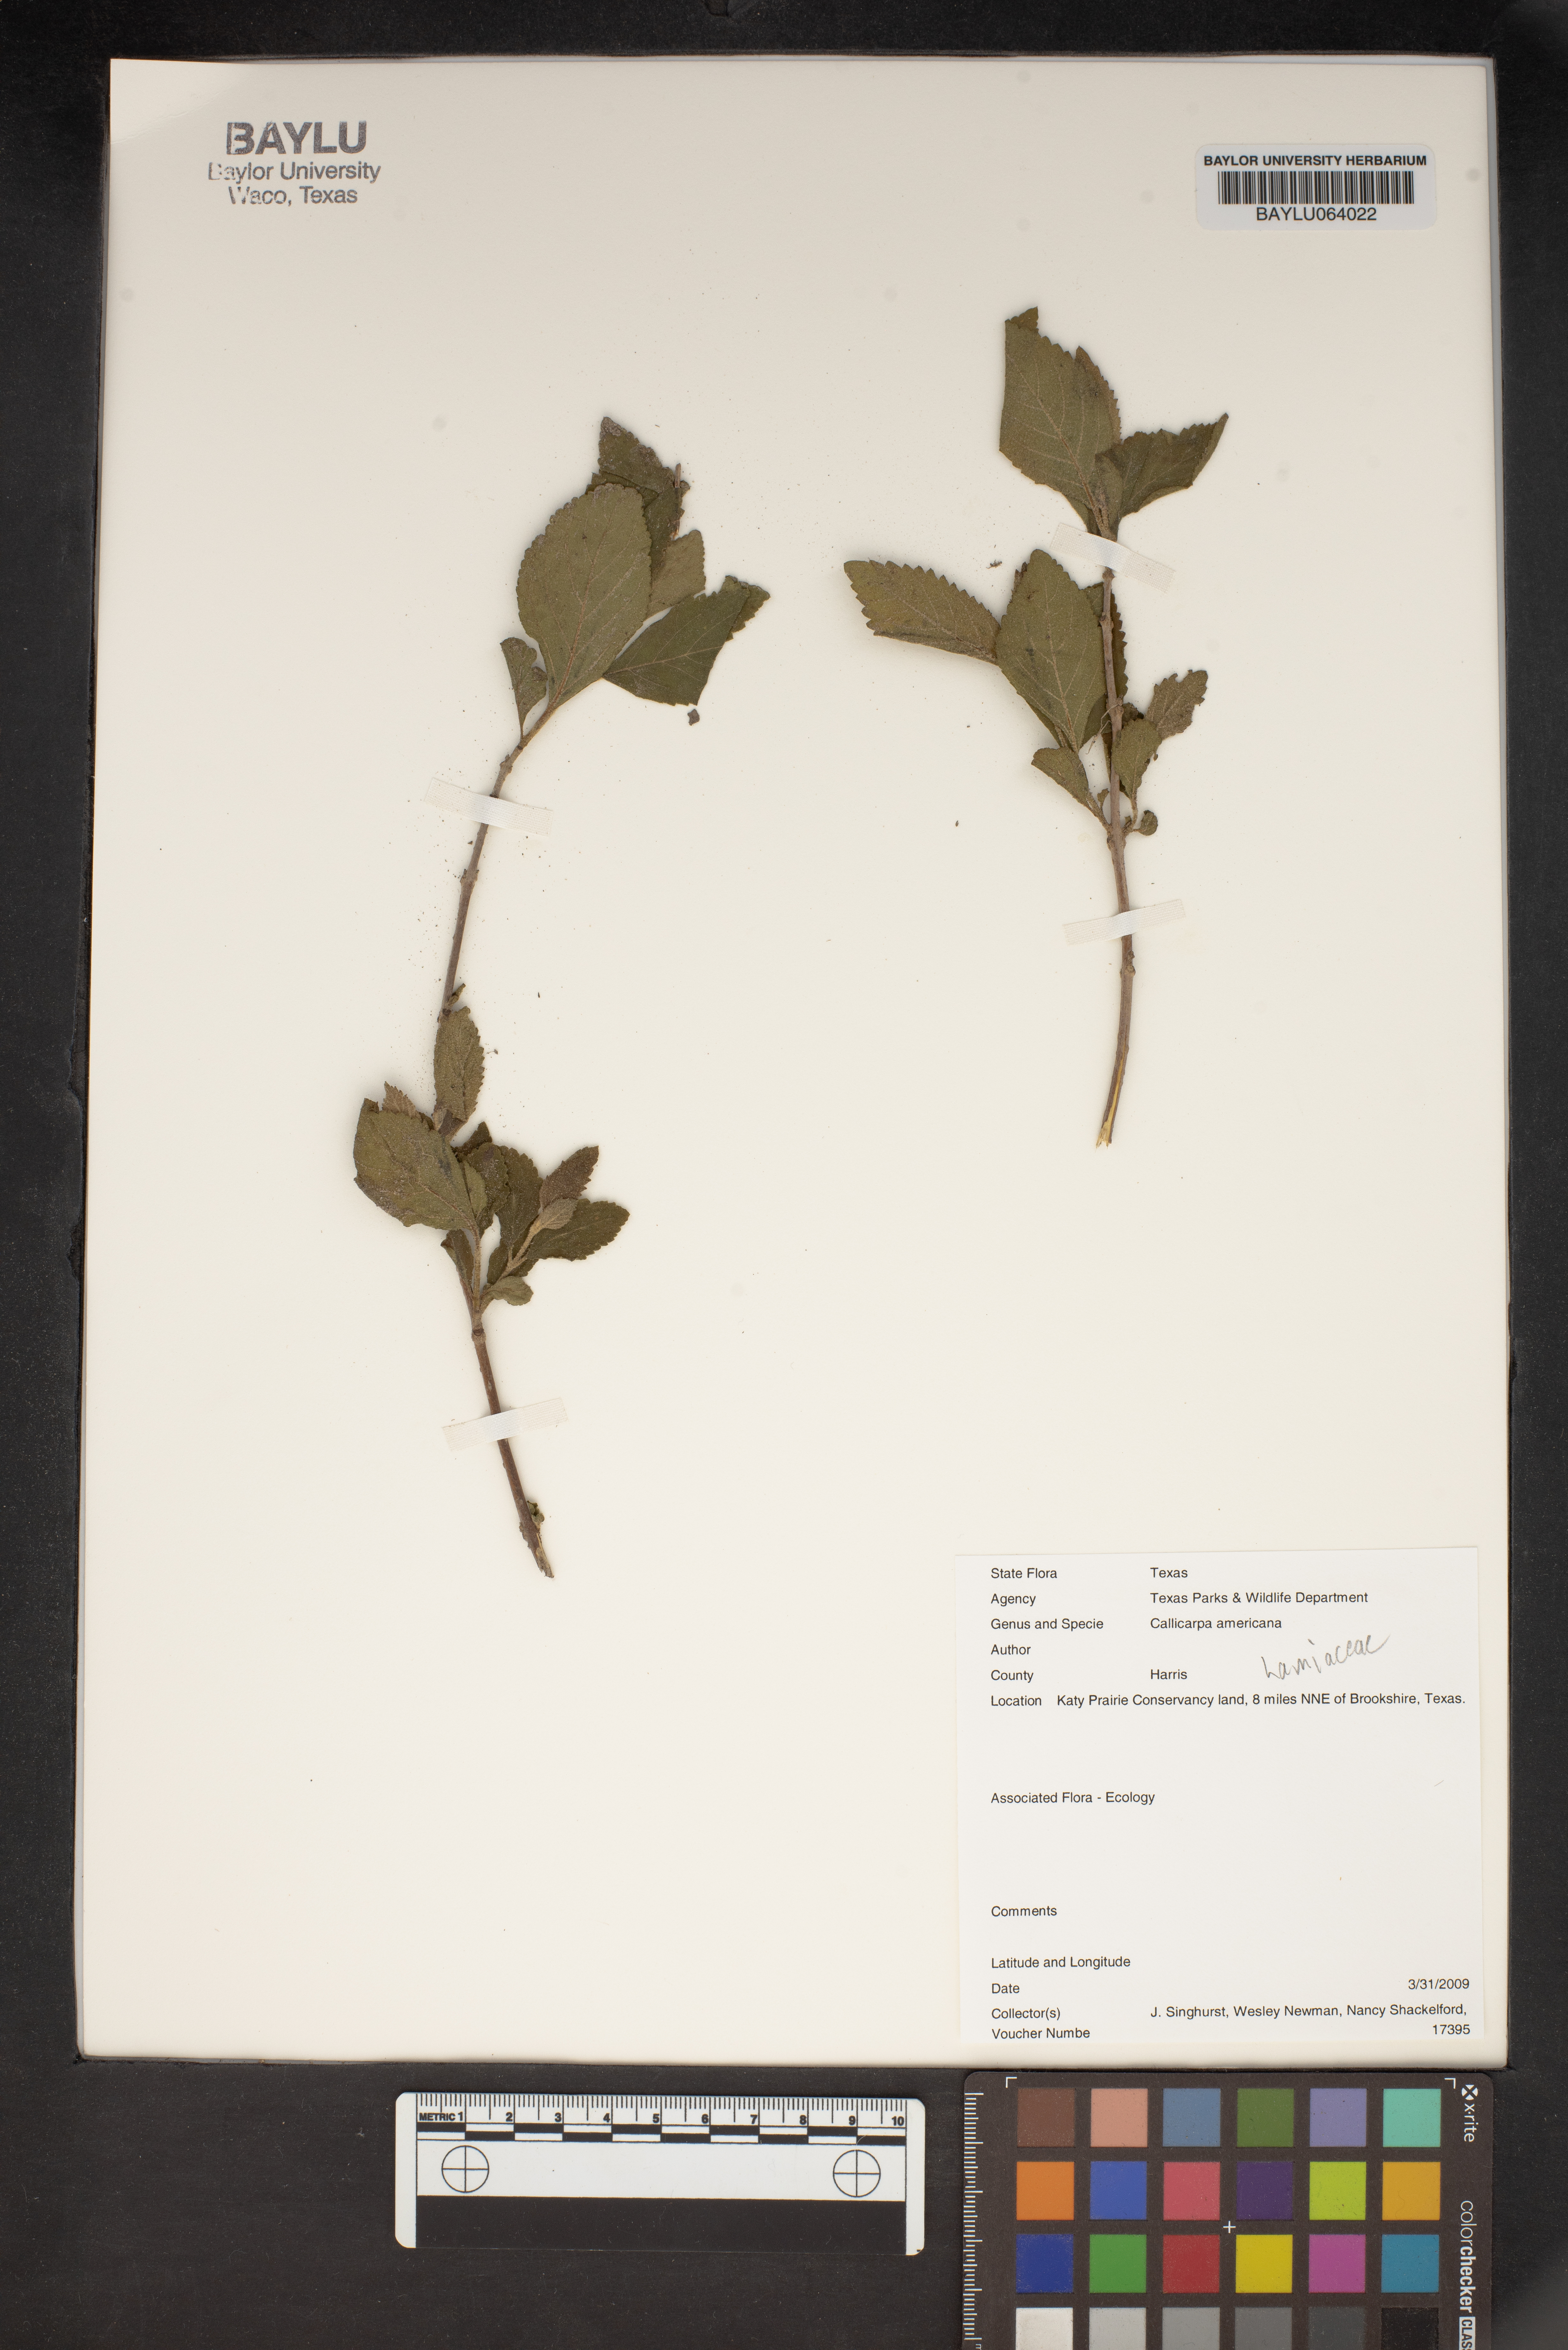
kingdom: Plantae
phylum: Tracheophyta
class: Magnoliopsida
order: Lamiales
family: Lamiaceae
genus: Callicarpa
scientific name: Callicarpa americana
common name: American beautyberry
